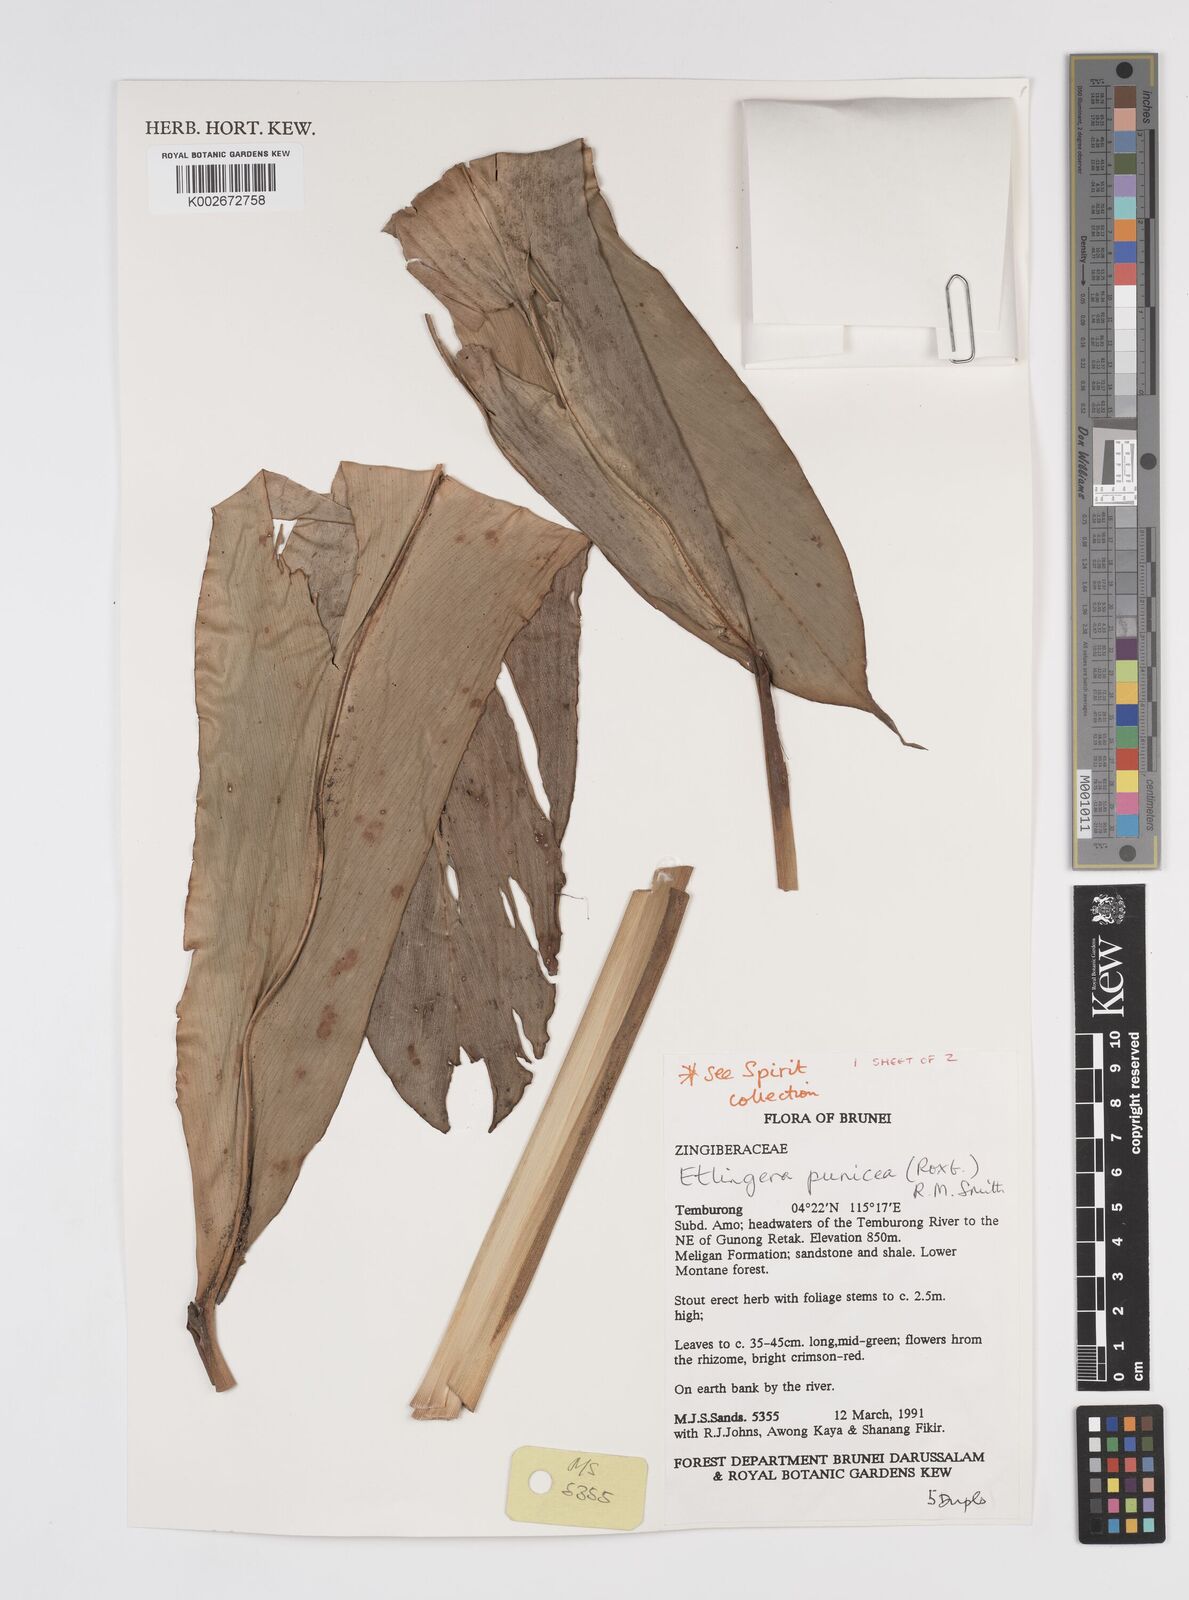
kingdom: Plantae
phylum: Tracheophyta
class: Liliopsida
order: Zingiberales
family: Zingiberaceae
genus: Etlingera
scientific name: Etlingera punicea
